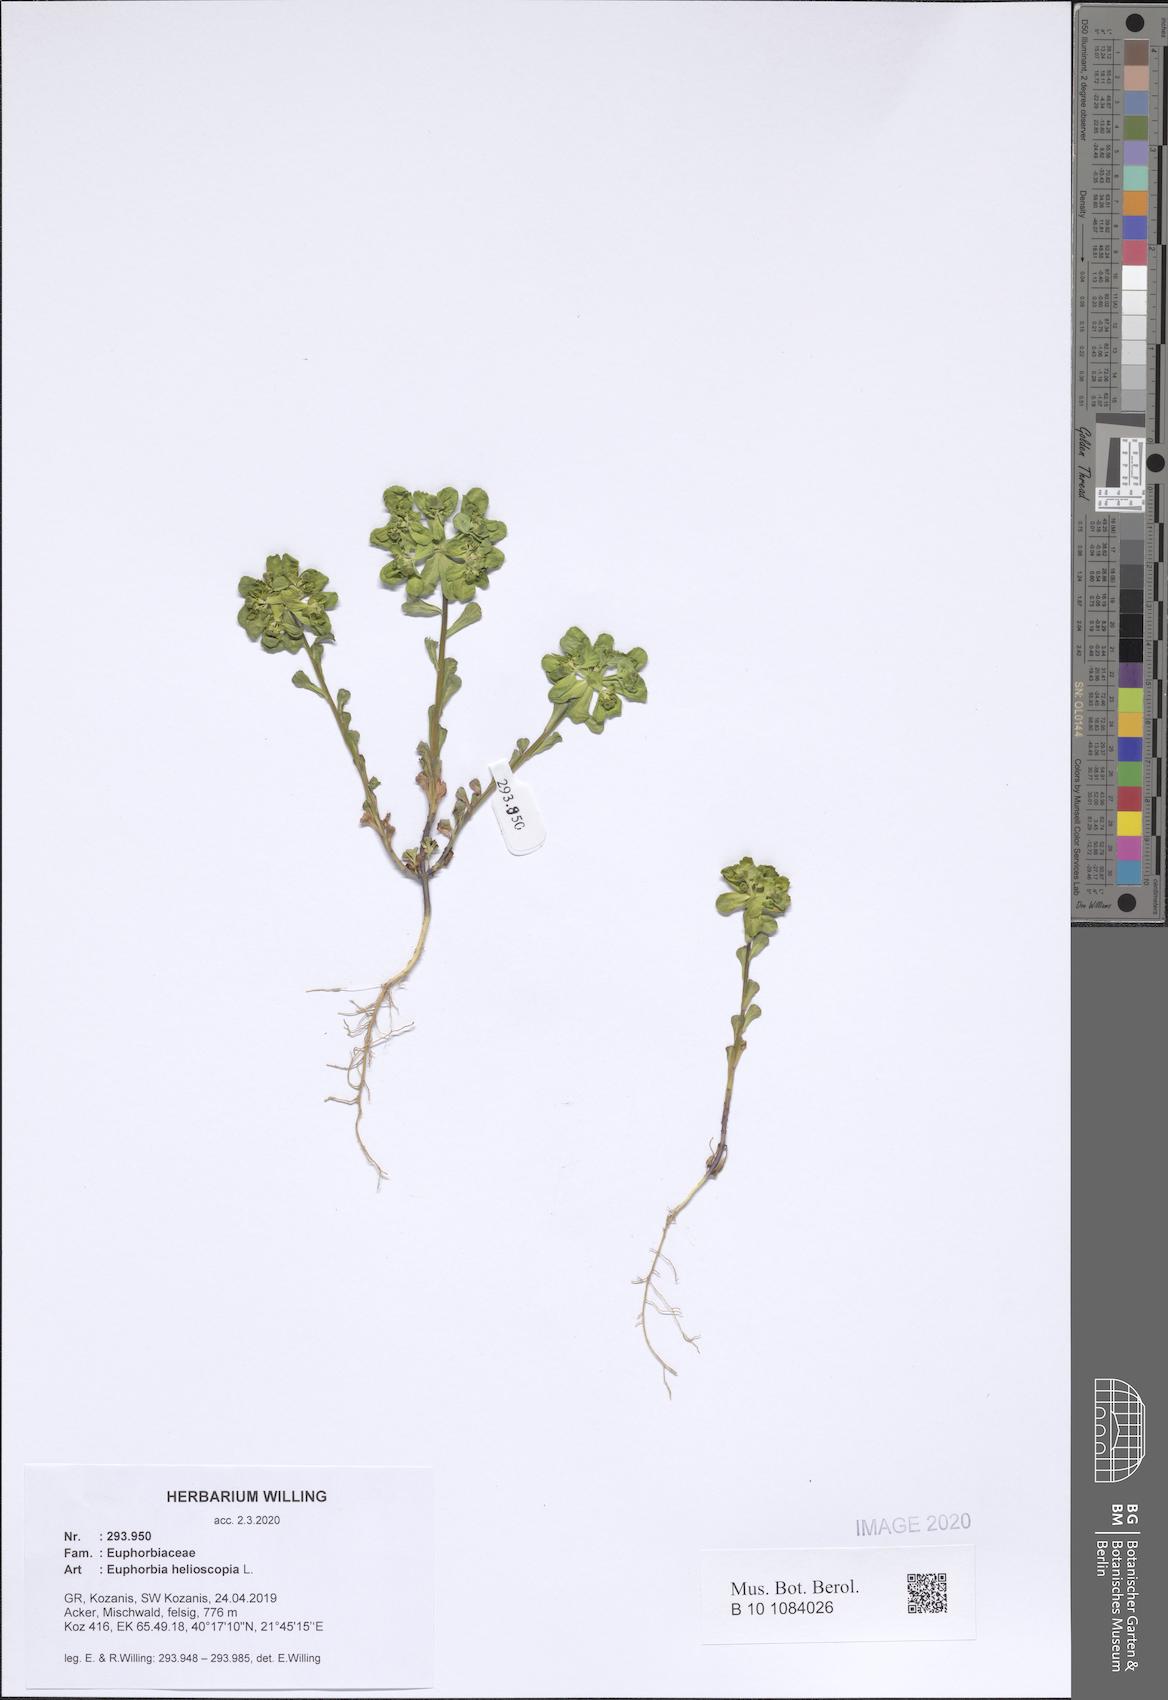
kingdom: Plantae
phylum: Tracheophyta
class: Magnoliopsida
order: Malpighiales
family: Euphorbiaceae
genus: Euphorbia
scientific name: Euphorbia helioscopia
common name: Sun spurge
